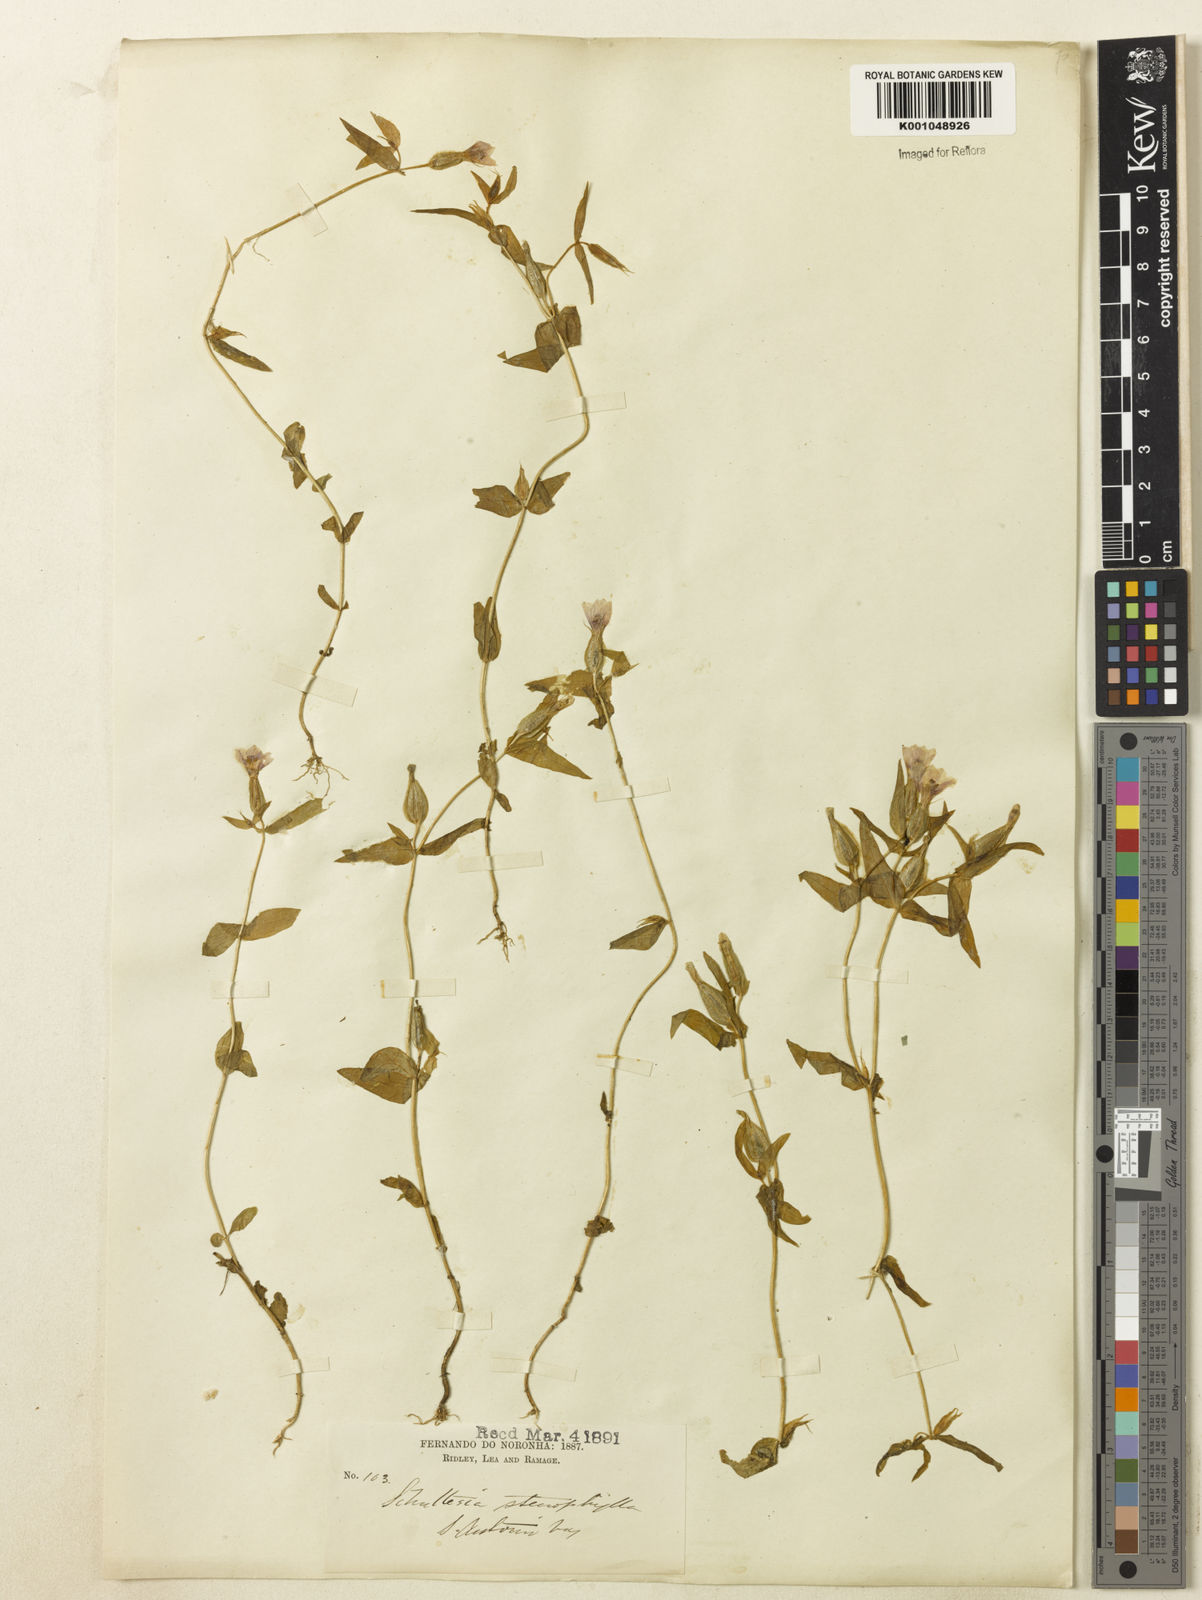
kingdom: Plantae
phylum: Tracheophyta
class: Magnoliopsida
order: Gentianales
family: Gentianaceae
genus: Schultesia
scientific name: Schultesia
